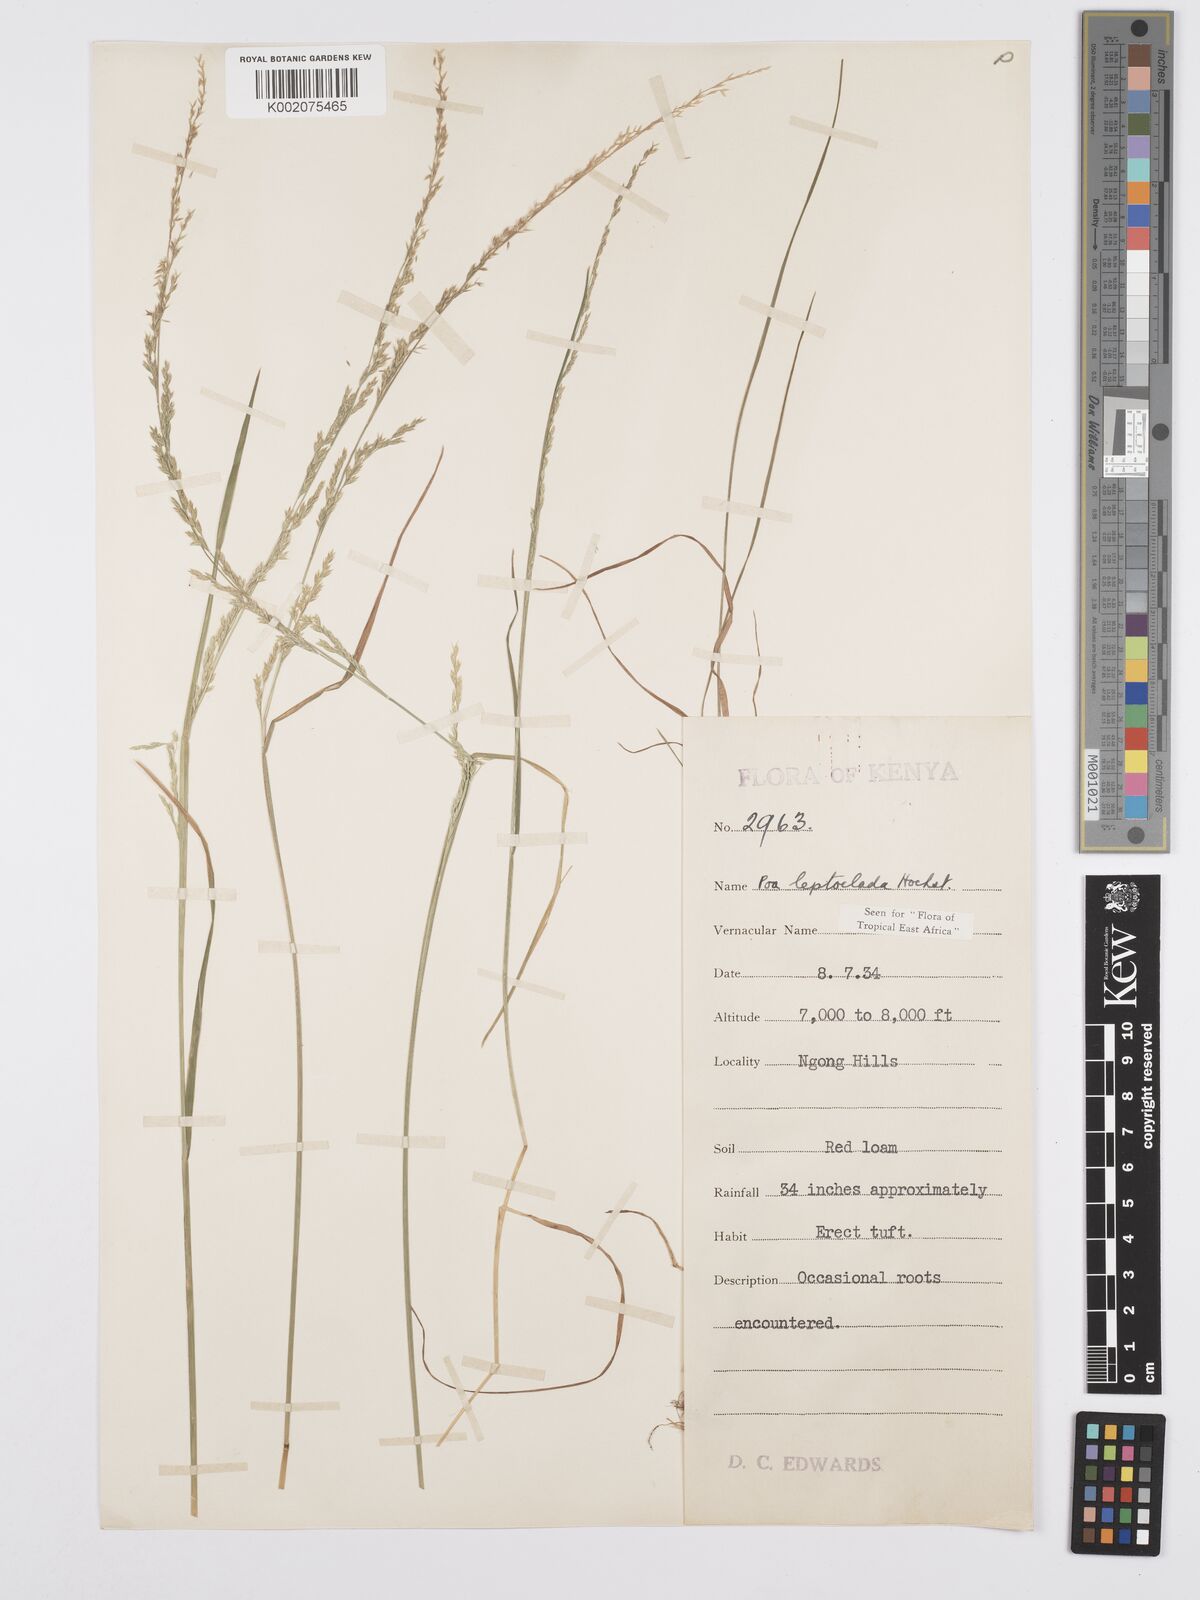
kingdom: Plantae
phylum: Tracheophyta
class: Liliopsida
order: Poales
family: Poaceae
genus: Poa
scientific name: Poa leptoclada
